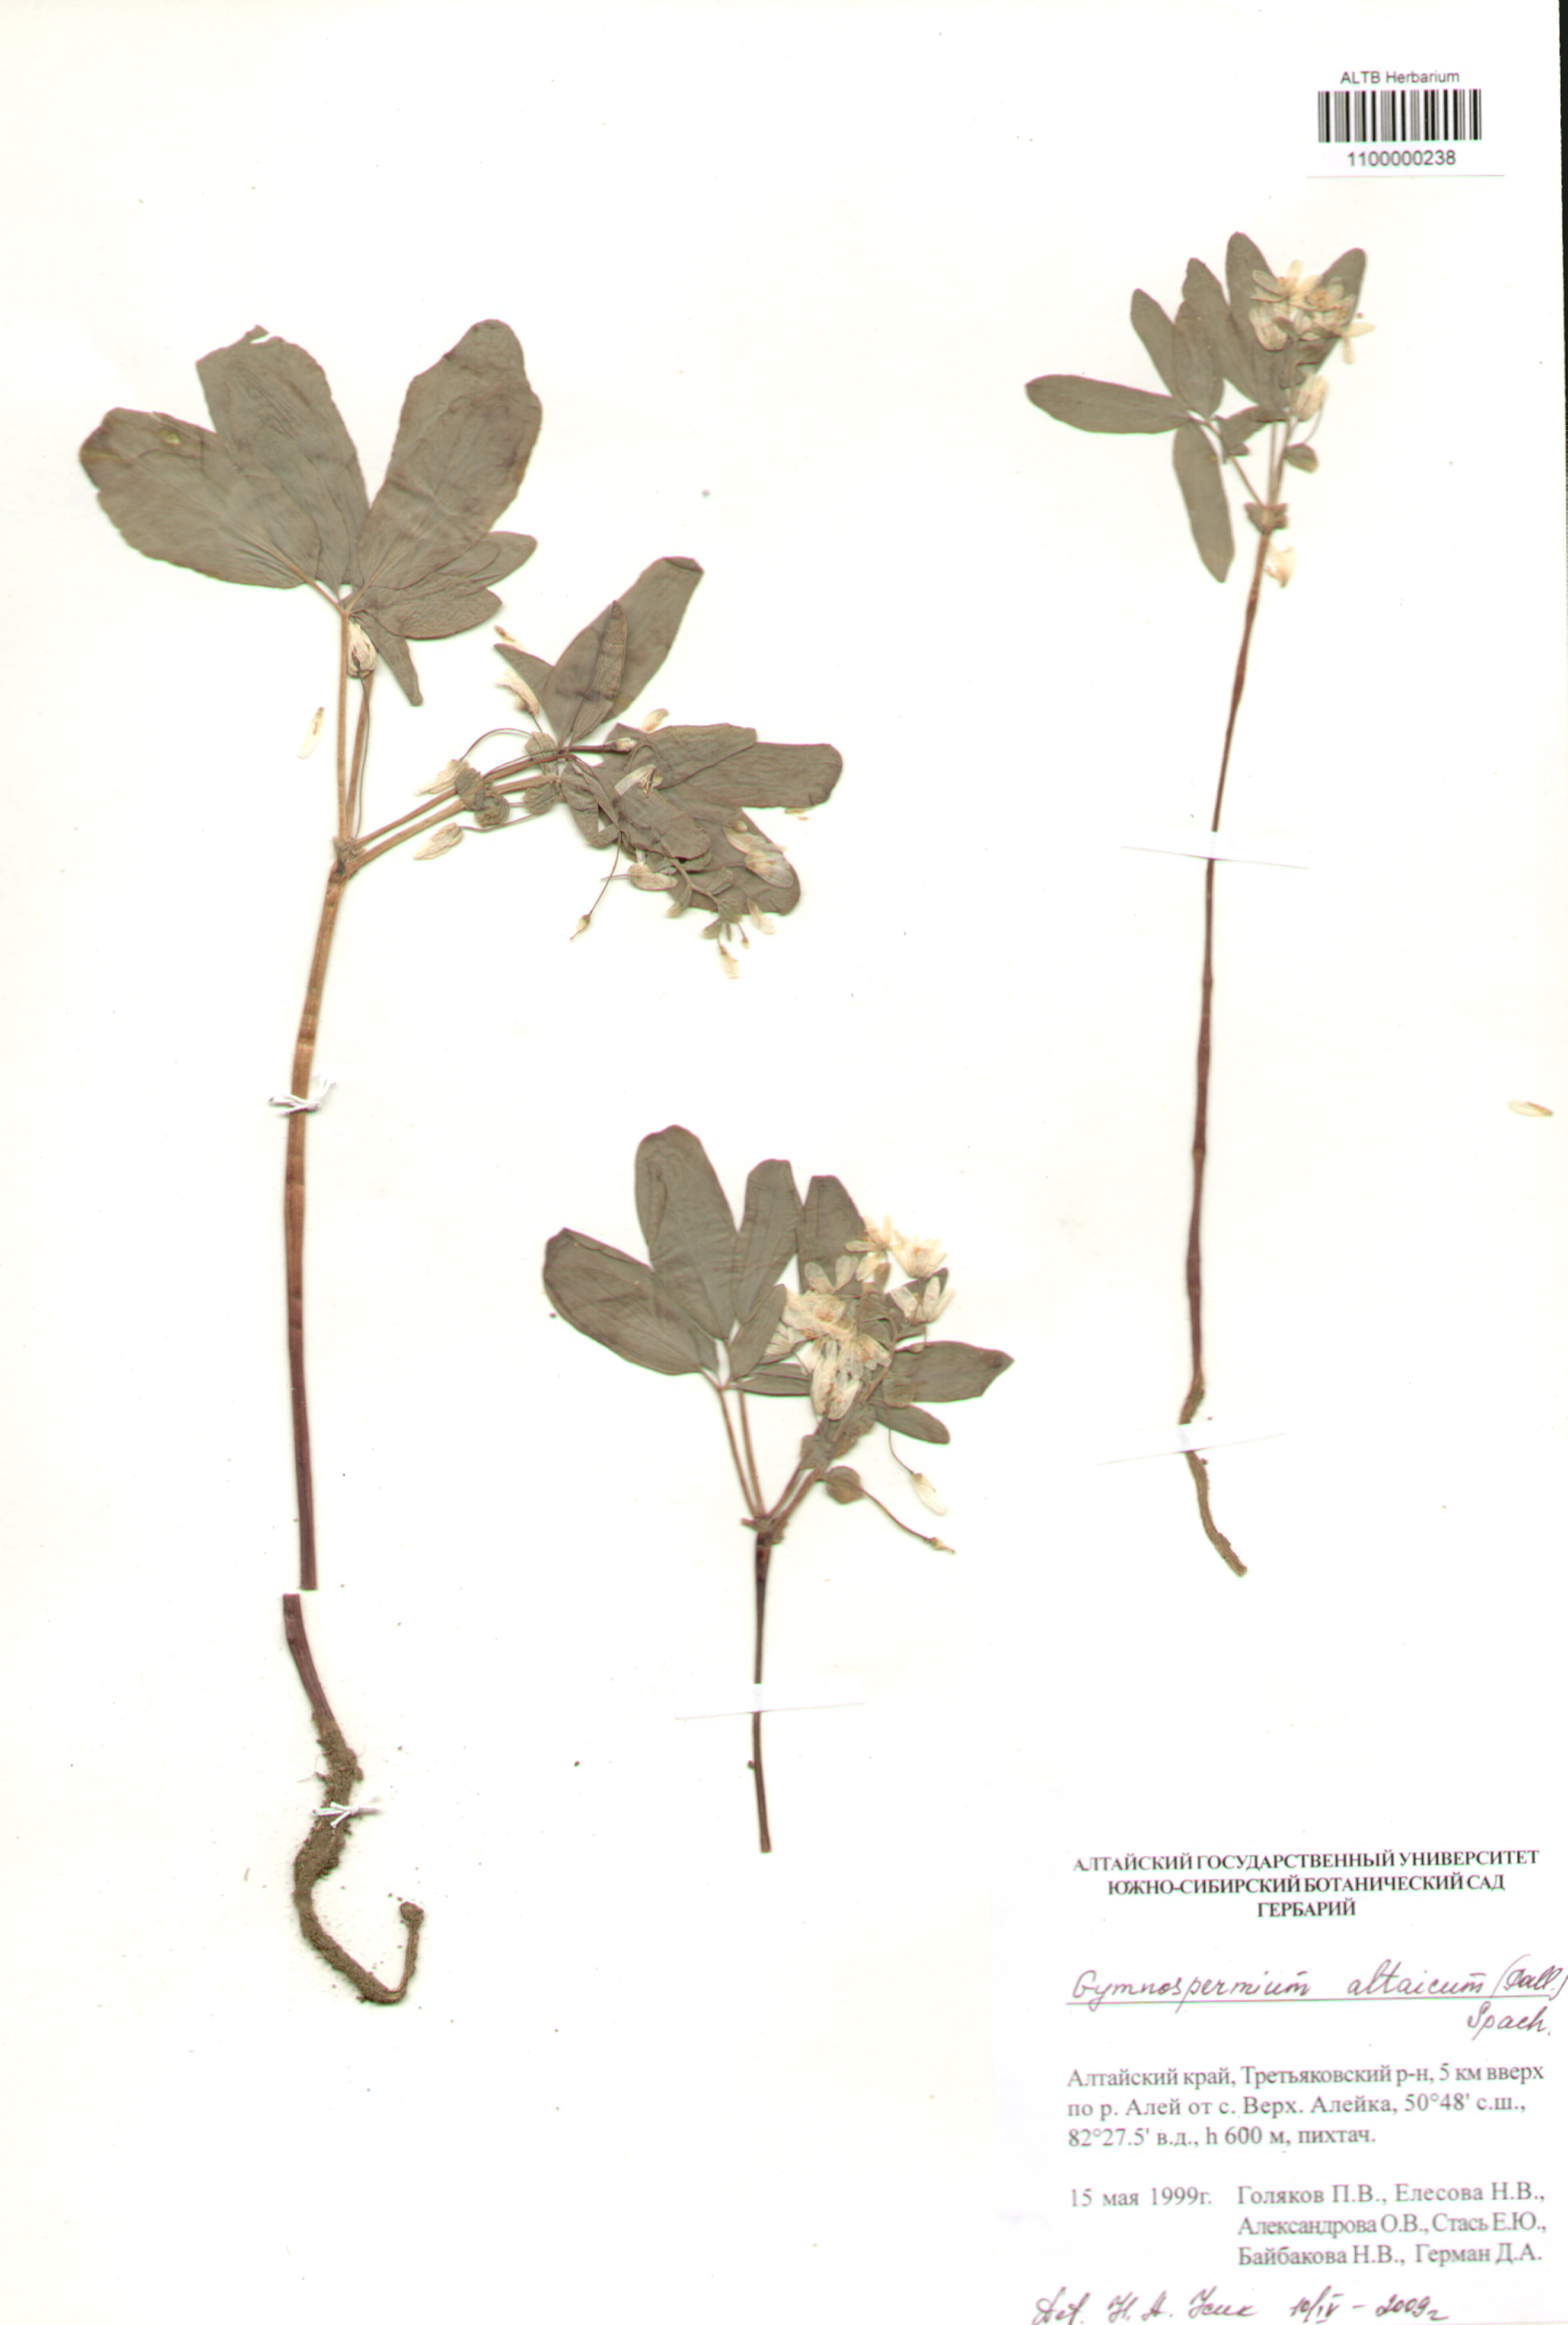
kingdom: Plantae
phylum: Tracheophyta
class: Magnoliopsida
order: Ranunculales
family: Berberidaceae
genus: Gymnospermium
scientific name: Gymnospermium altaicum
